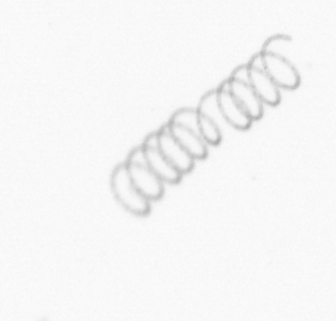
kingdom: Chromista
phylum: Ochrophyta
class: Bacillariophyceae
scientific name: Bacillariophyceae
